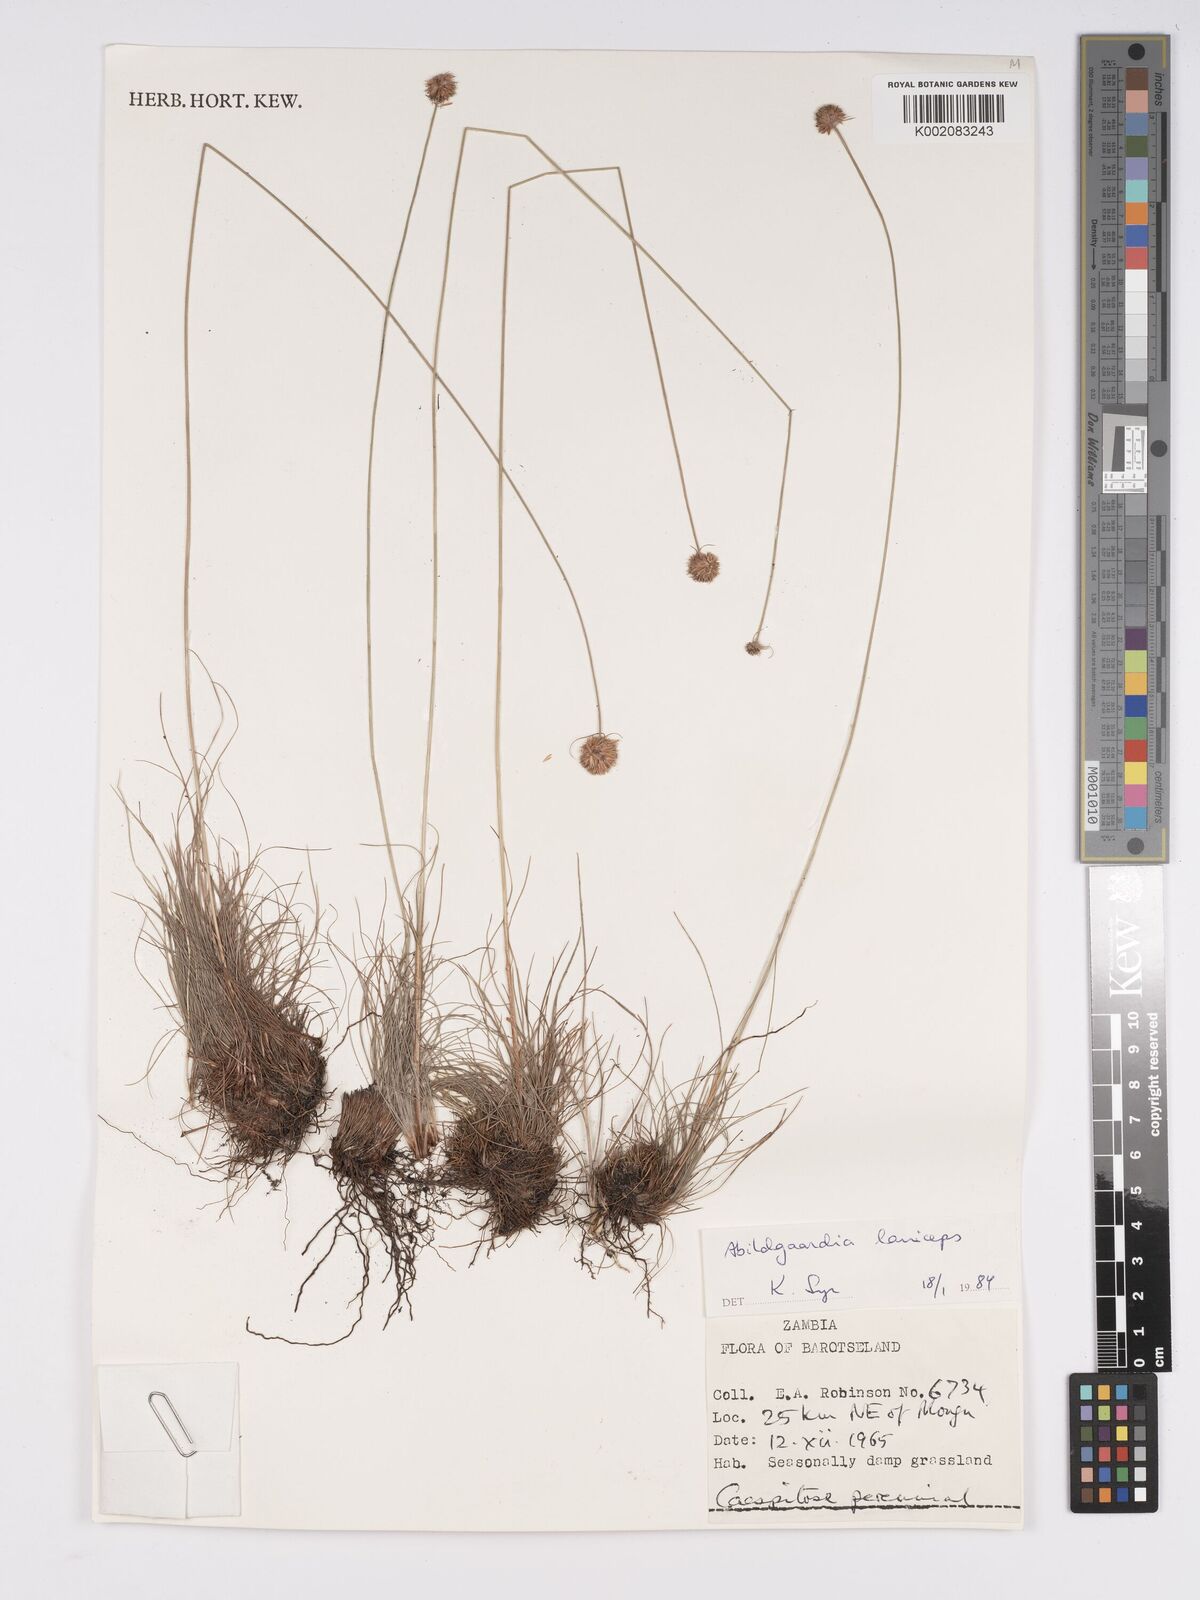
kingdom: Plantae
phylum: Tracheophyta
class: Liliopsida
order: Poales
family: Cyperaceae
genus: Bulbostylis
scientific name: Bulbostylis laniceps
